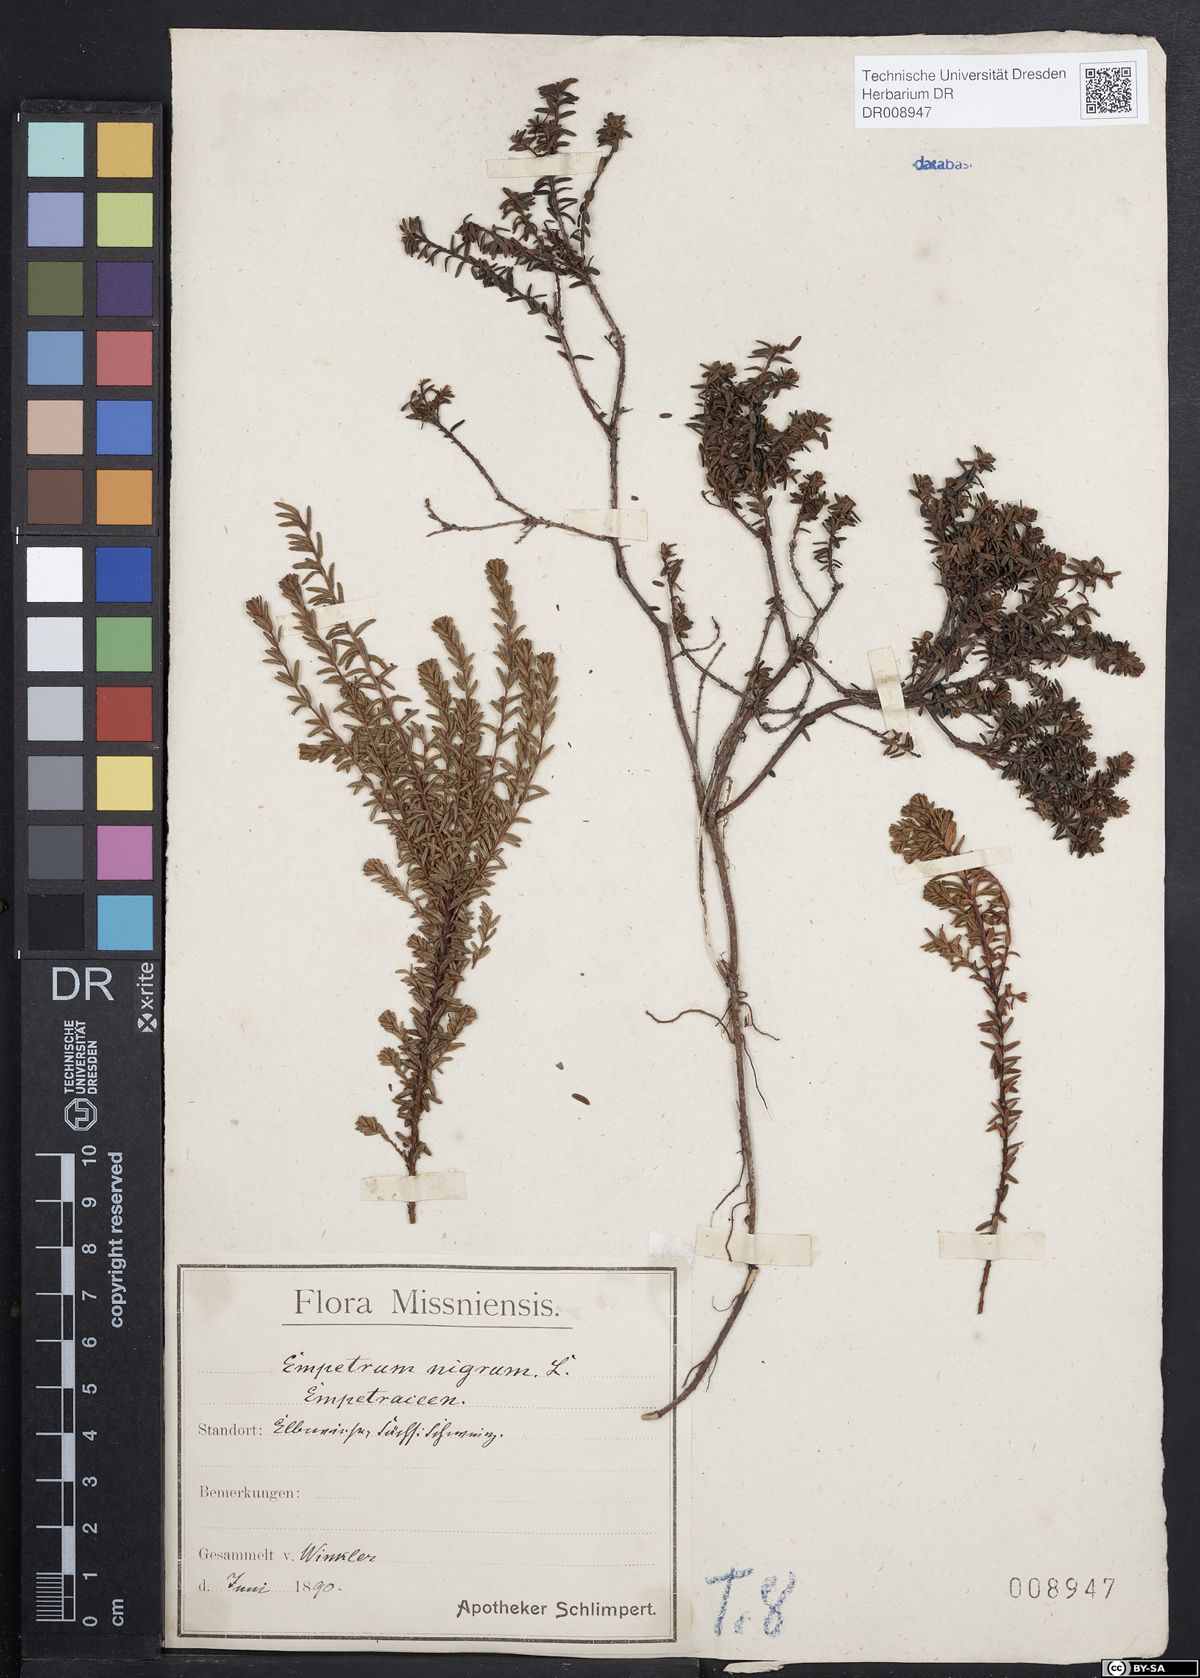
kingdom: Plantae
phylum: Tracheophyta
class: Magnoliopsida
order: Ericales
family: Ericaceae
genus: Empetrum
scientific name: Empetrum nigrum
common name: Black crowberry
